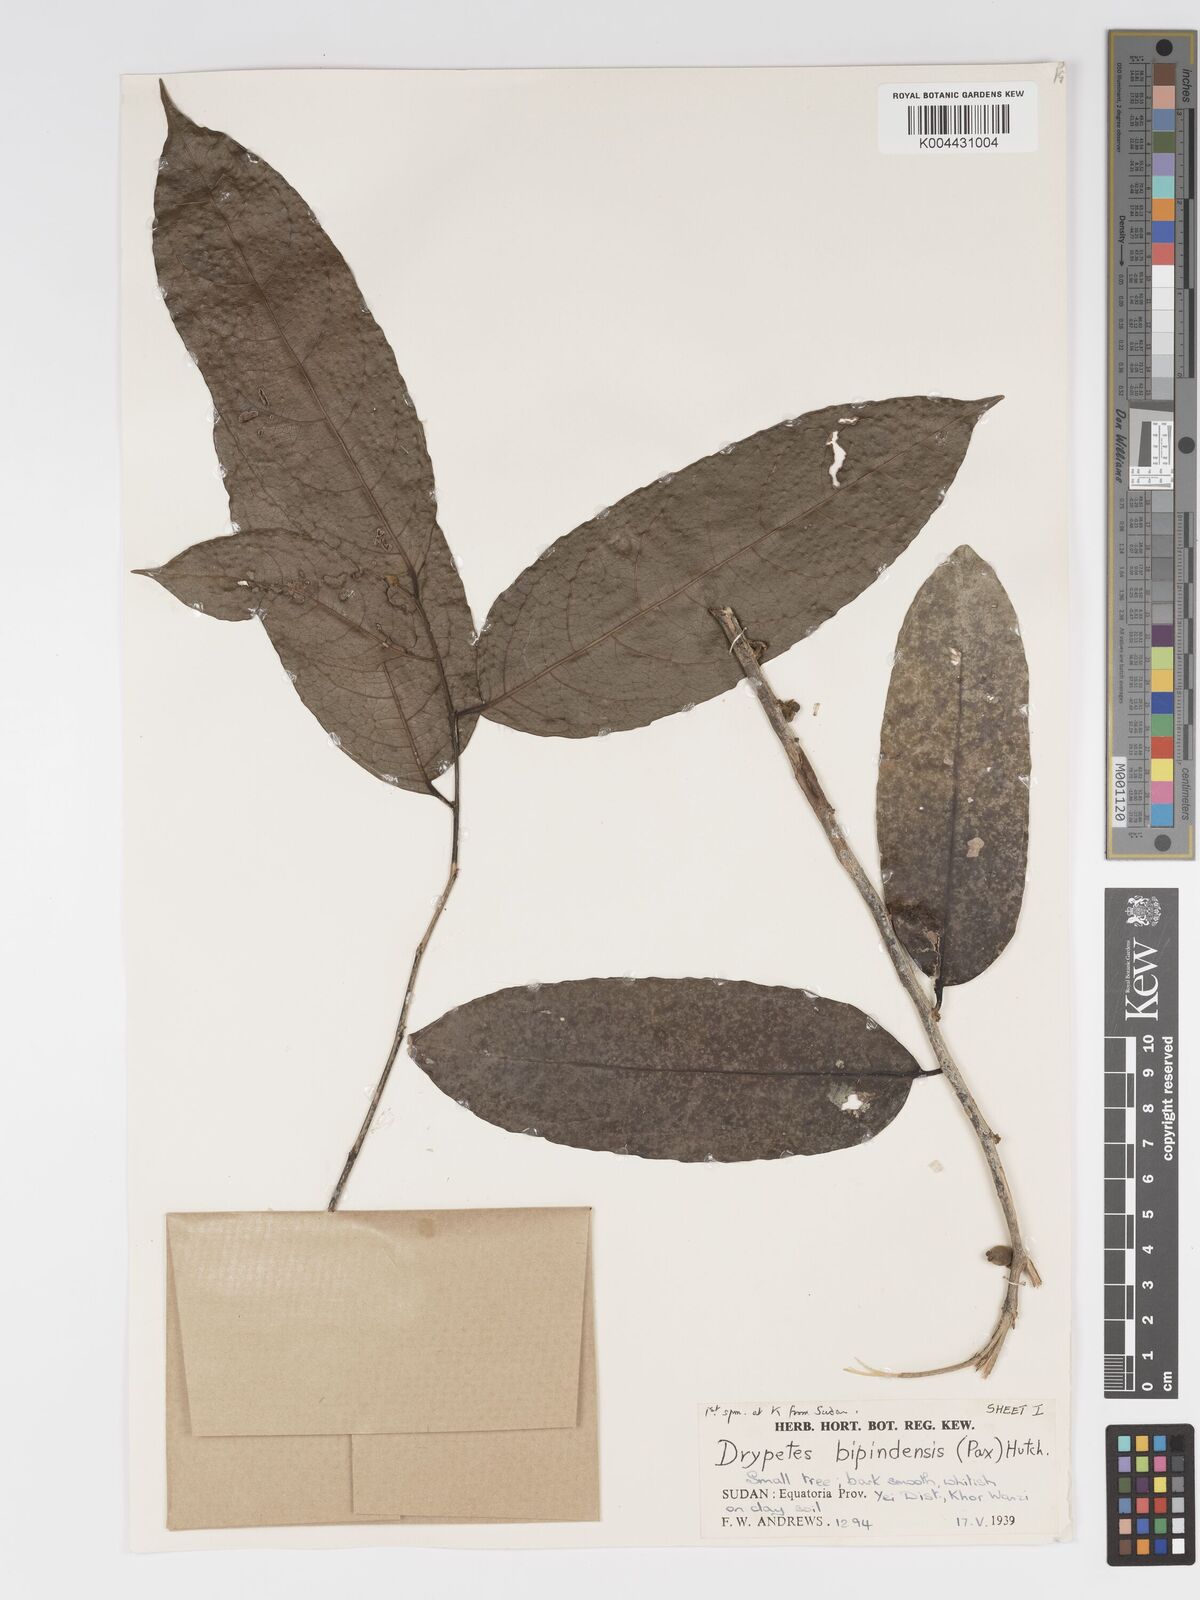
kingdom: Plantae
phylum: Tracheophyta
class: Magnoliopsida
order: Malpighiales
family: Putranjivaceae
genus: Drypetes
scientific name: Drypetes bipindensis
